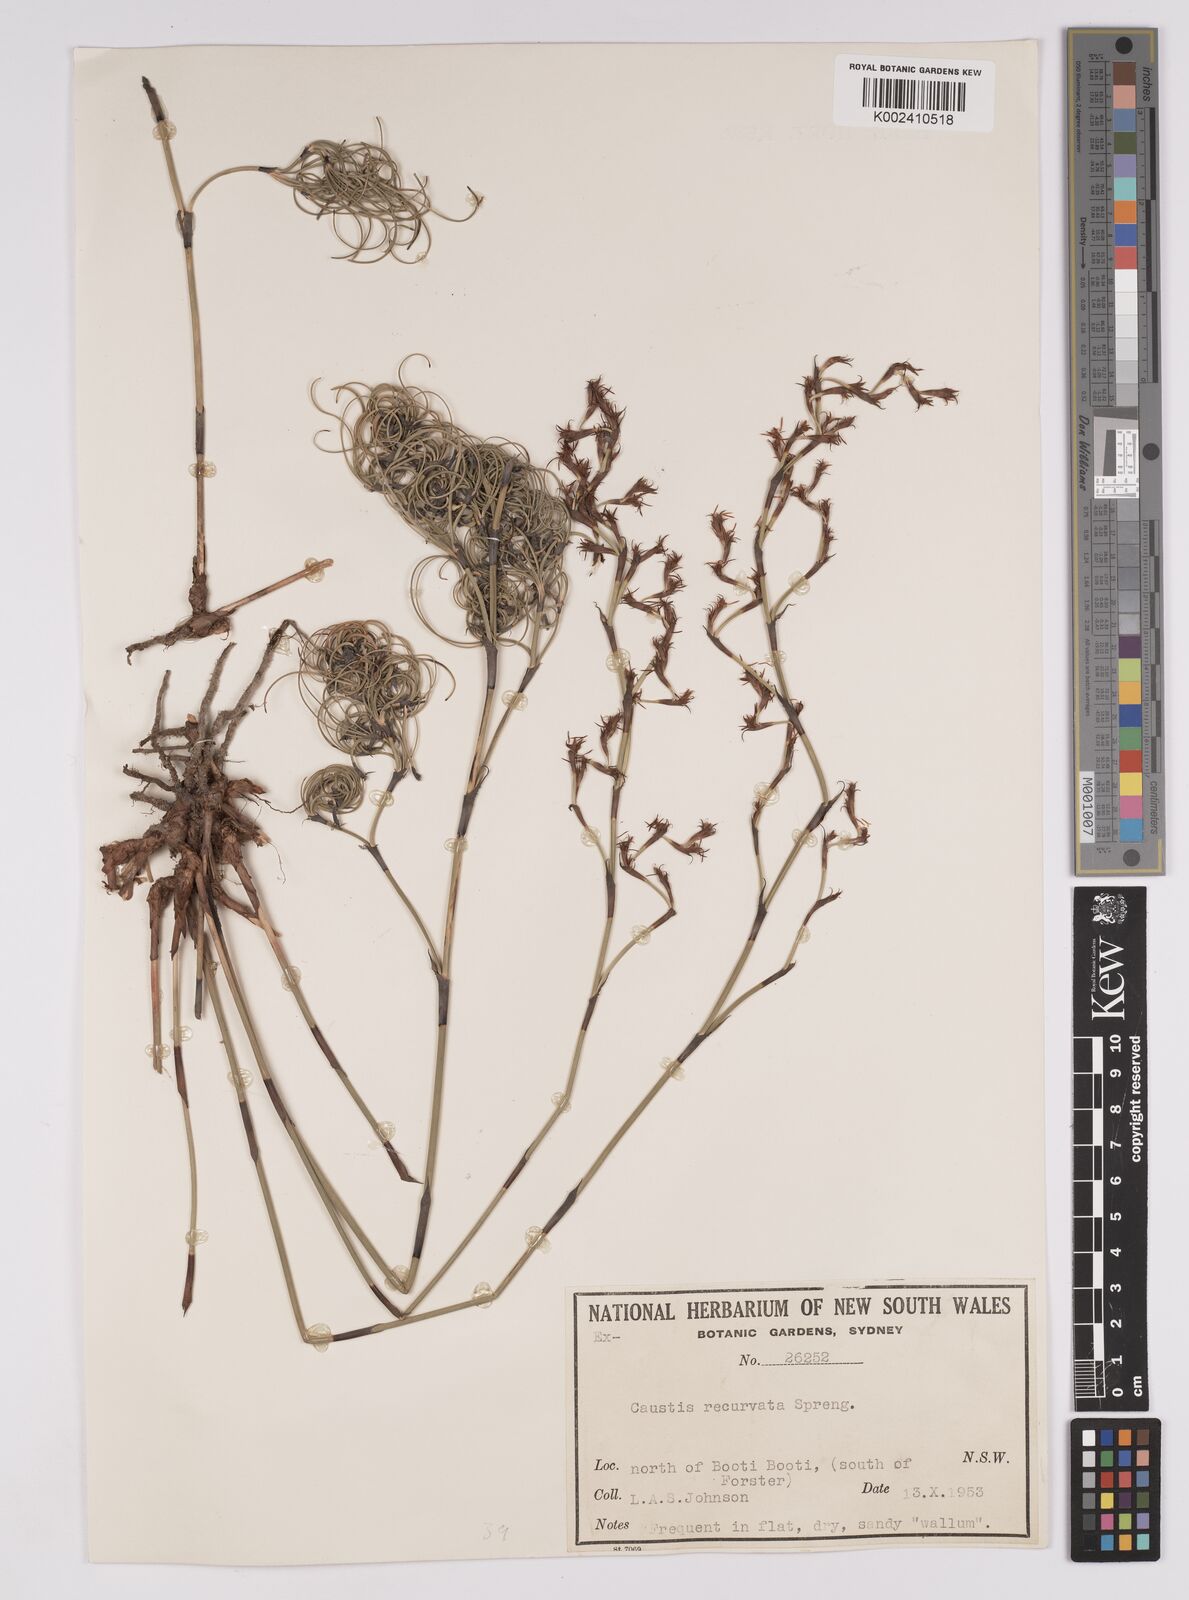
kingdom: Plantae
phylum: Tracheophyta
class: Liliopsida
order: Poales
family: Cyperaceae
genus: Caustis
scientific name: Caustis recurvata
